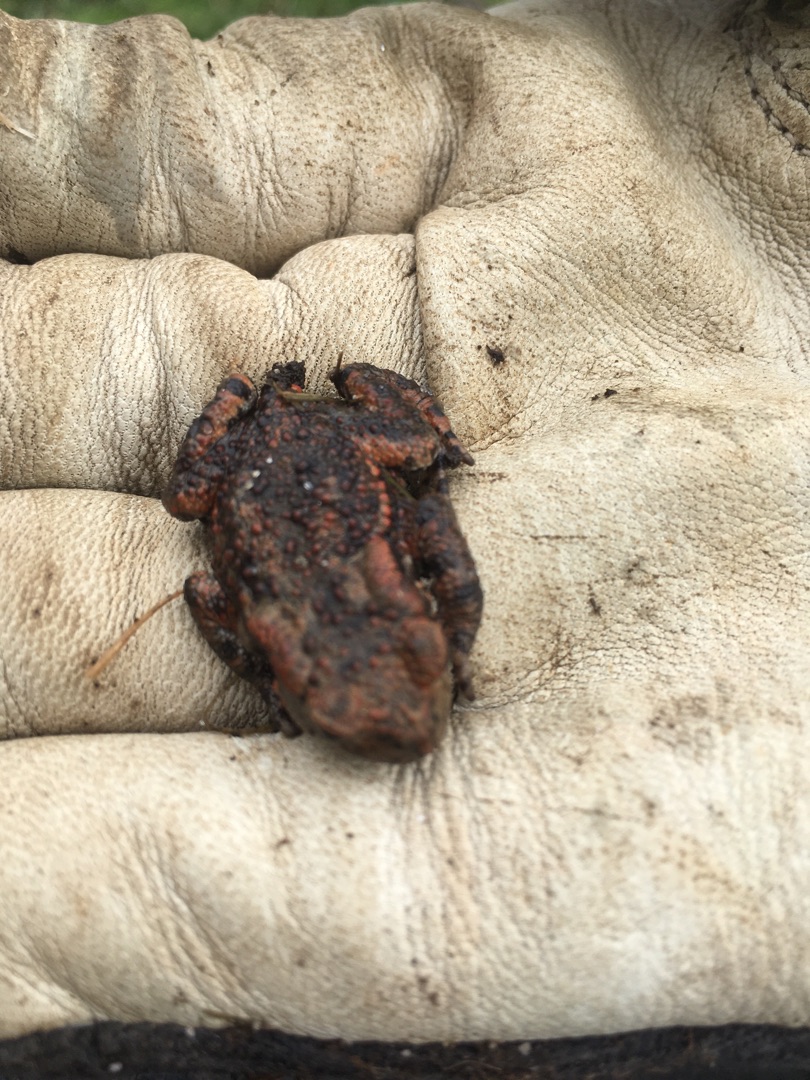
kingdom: Animalia
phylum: Chordata
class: Amphibia
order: Anura
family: Bufonidae
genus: Bufo
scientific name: Bufo bufo
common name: Skrubtudse
